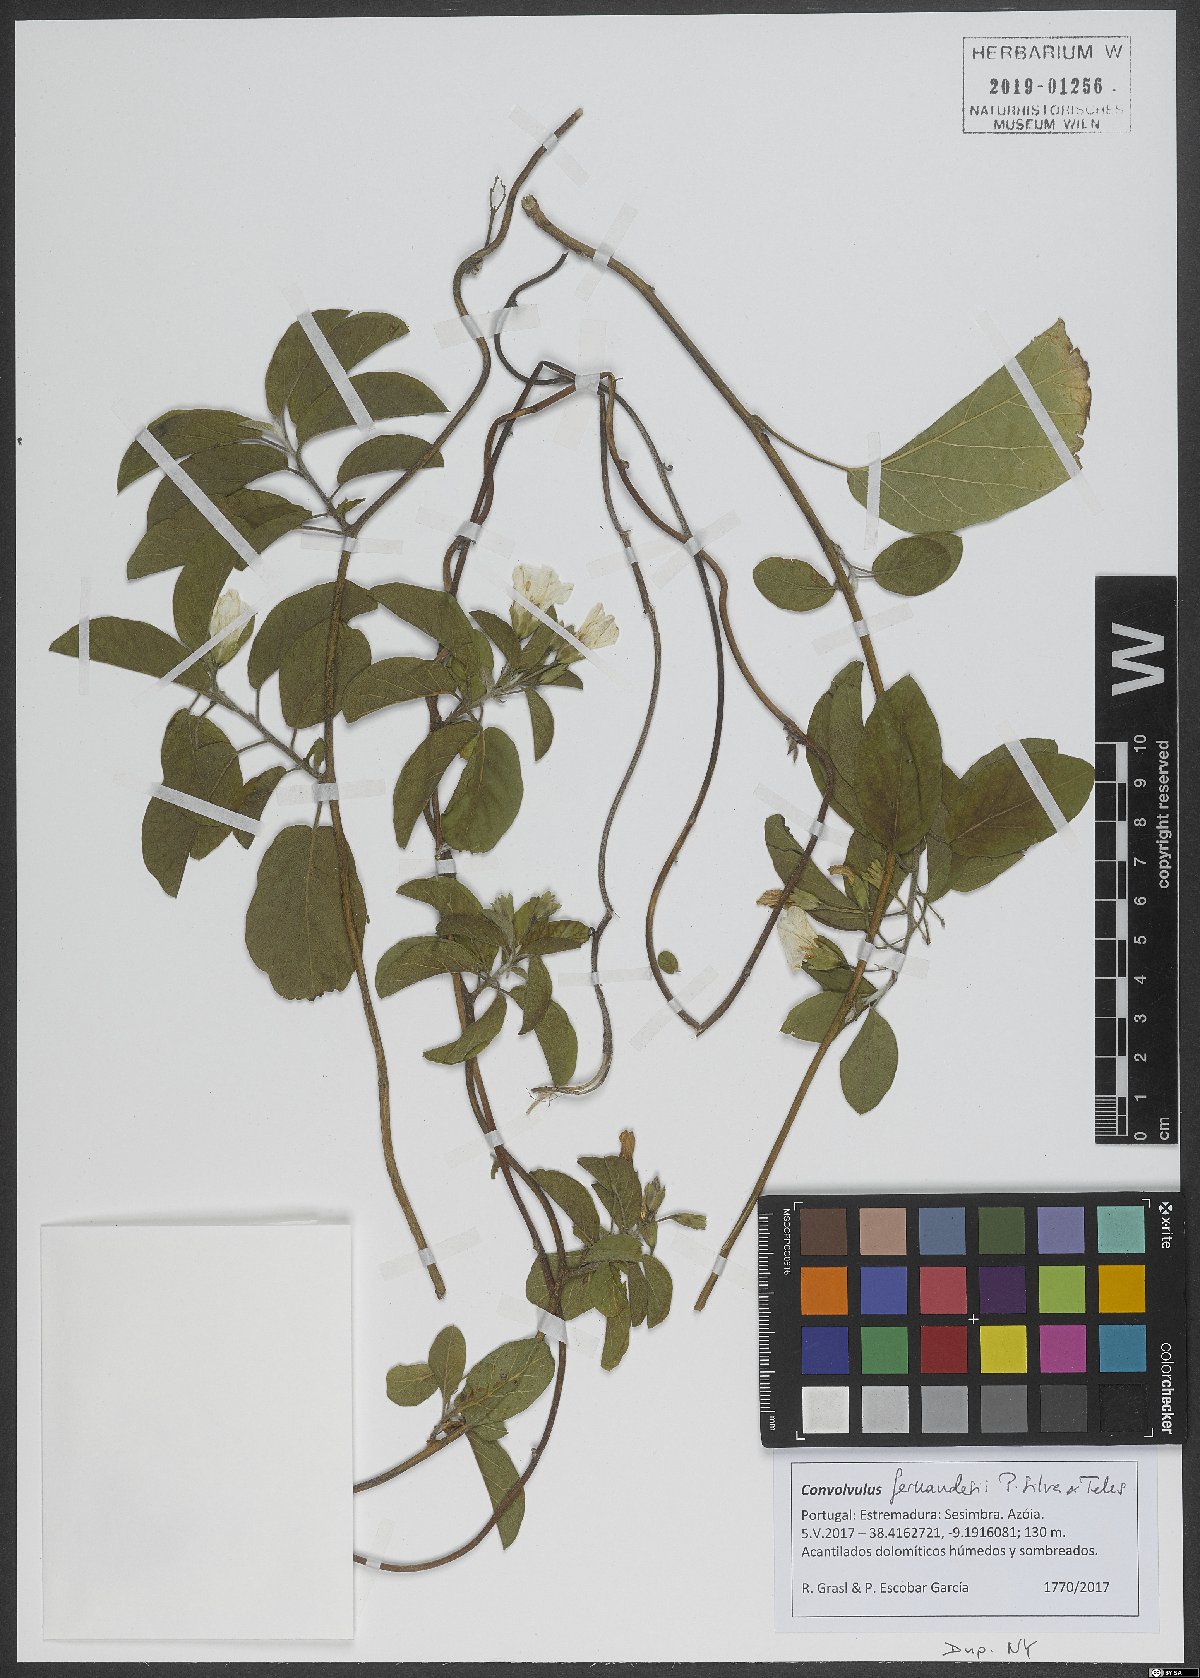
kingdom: Plantae
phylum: Tracheophyta
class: Magnoliopsida
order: Solanales
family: Convolvulaceae
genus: Convolvulus
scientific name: Convolvulus fernandesii
